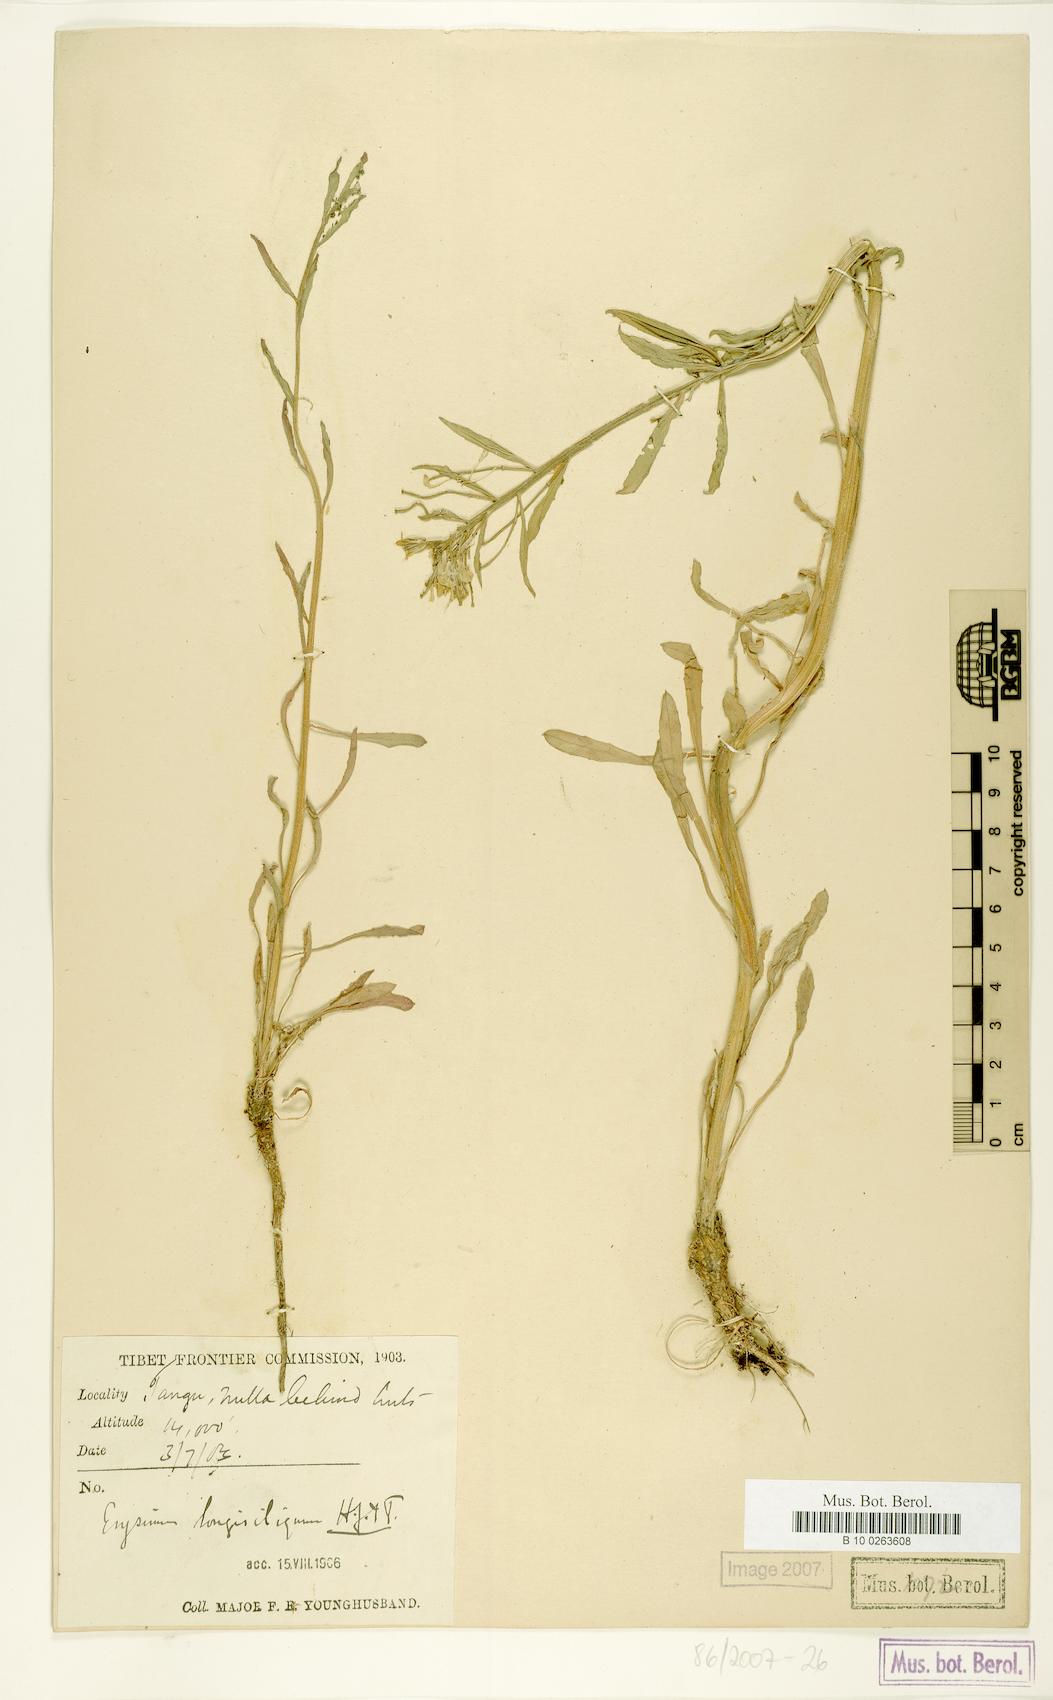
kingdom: Plantae
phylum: Tracheophyta
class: Magnoliopsida
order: Brassicales
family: Brassicaceae
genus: Erysimum
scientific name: Erysimum pachycarpum
